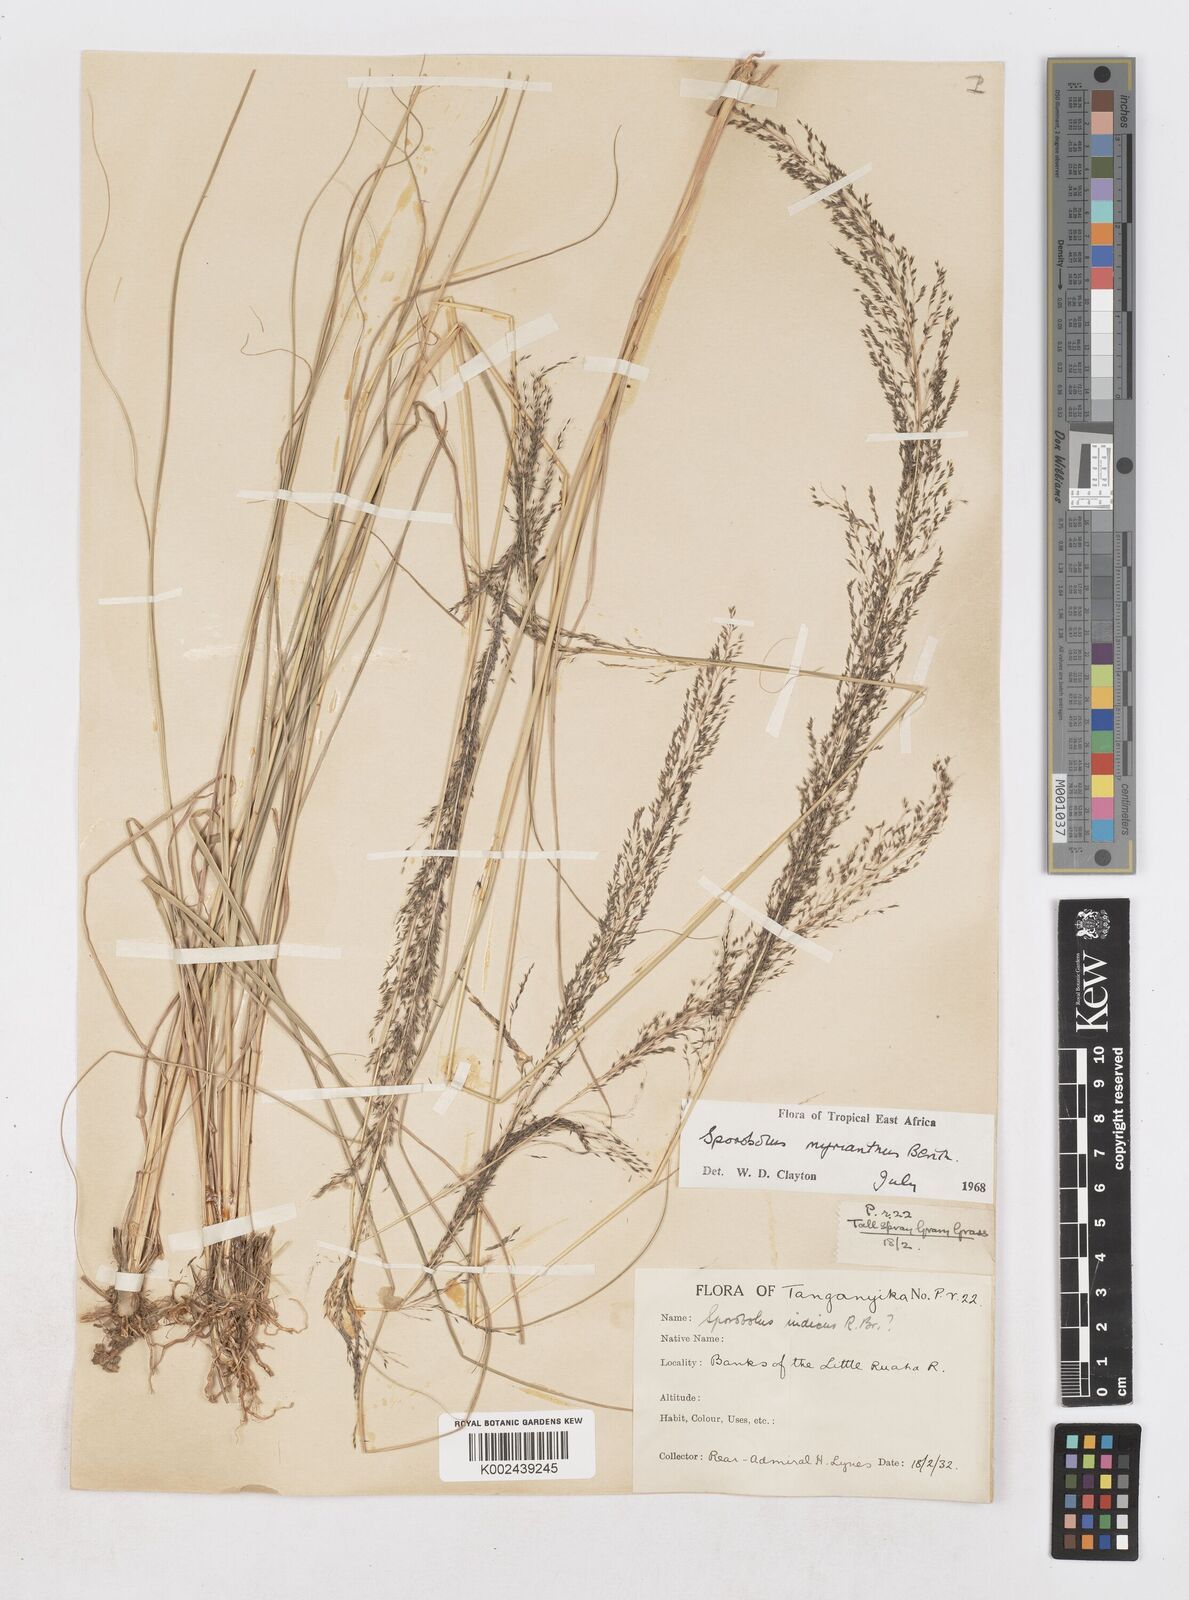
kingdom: Plantae
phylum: Tracheophyta
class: Liliopsida
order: Poales
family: Poaceae
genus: Sporobolus
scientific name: Sporobolus myrianthus
